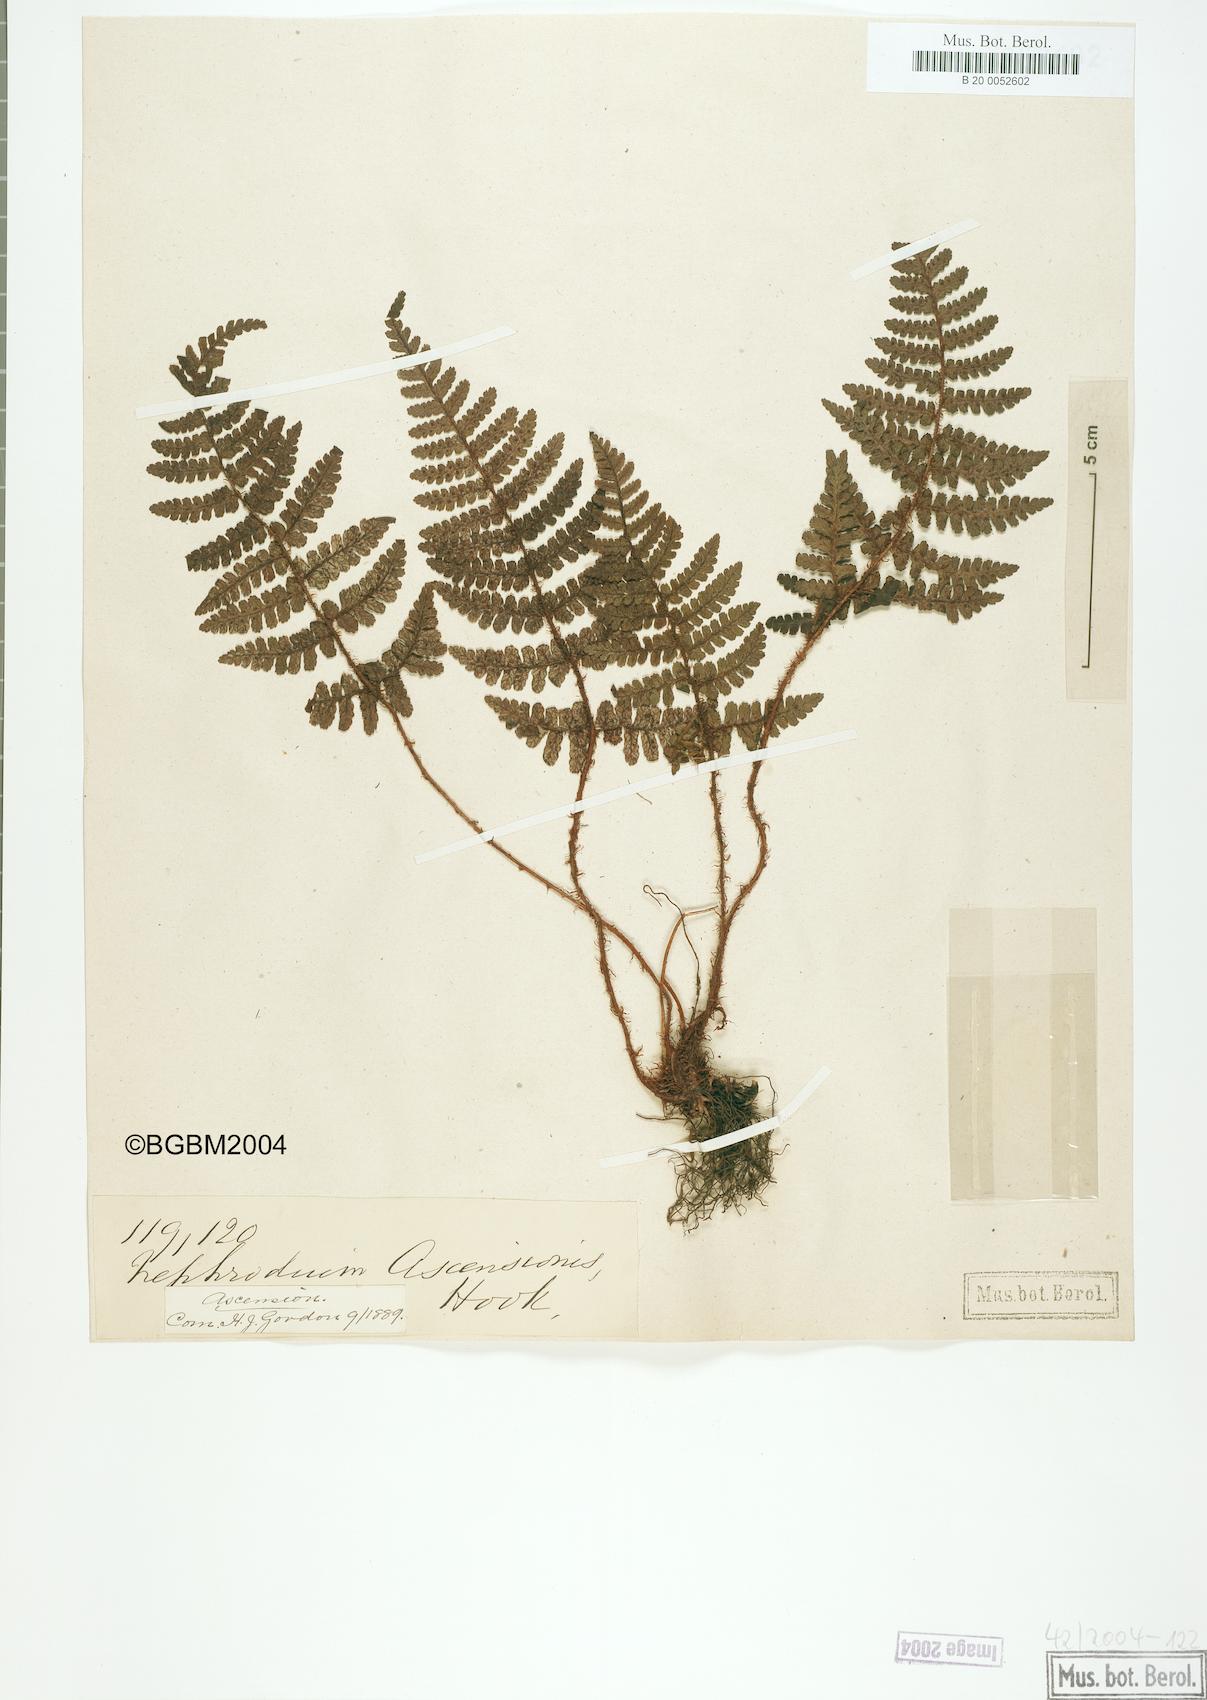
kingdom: Plantae
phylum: Tracheophyta
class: Polypodiopsida
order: Polypodiales
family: Dryopteridaceae
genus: Dryopteris
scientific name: Dryopteris ascensionis
